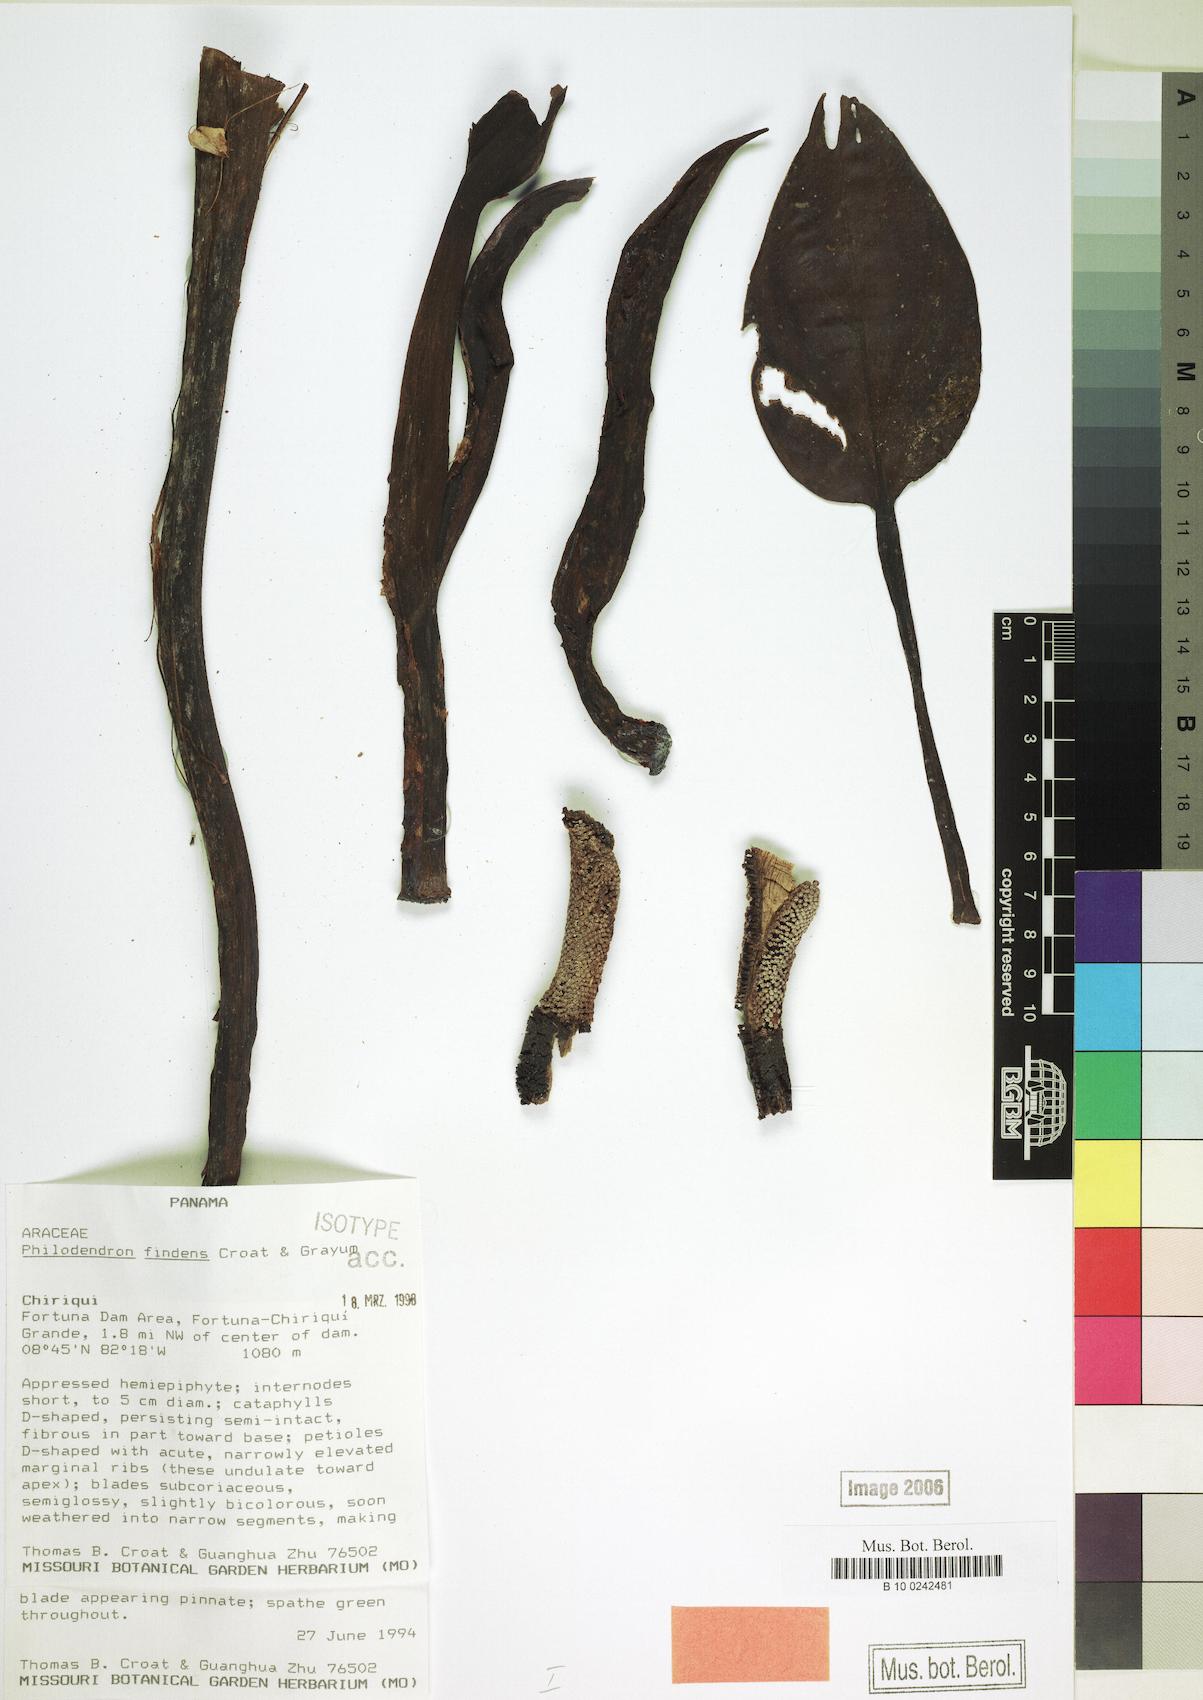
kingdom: Plantae
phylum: Tracheophyta
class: Liliopsida
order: Alismatales
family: Araceae
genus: Philodendron
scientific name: Philodendron findens
